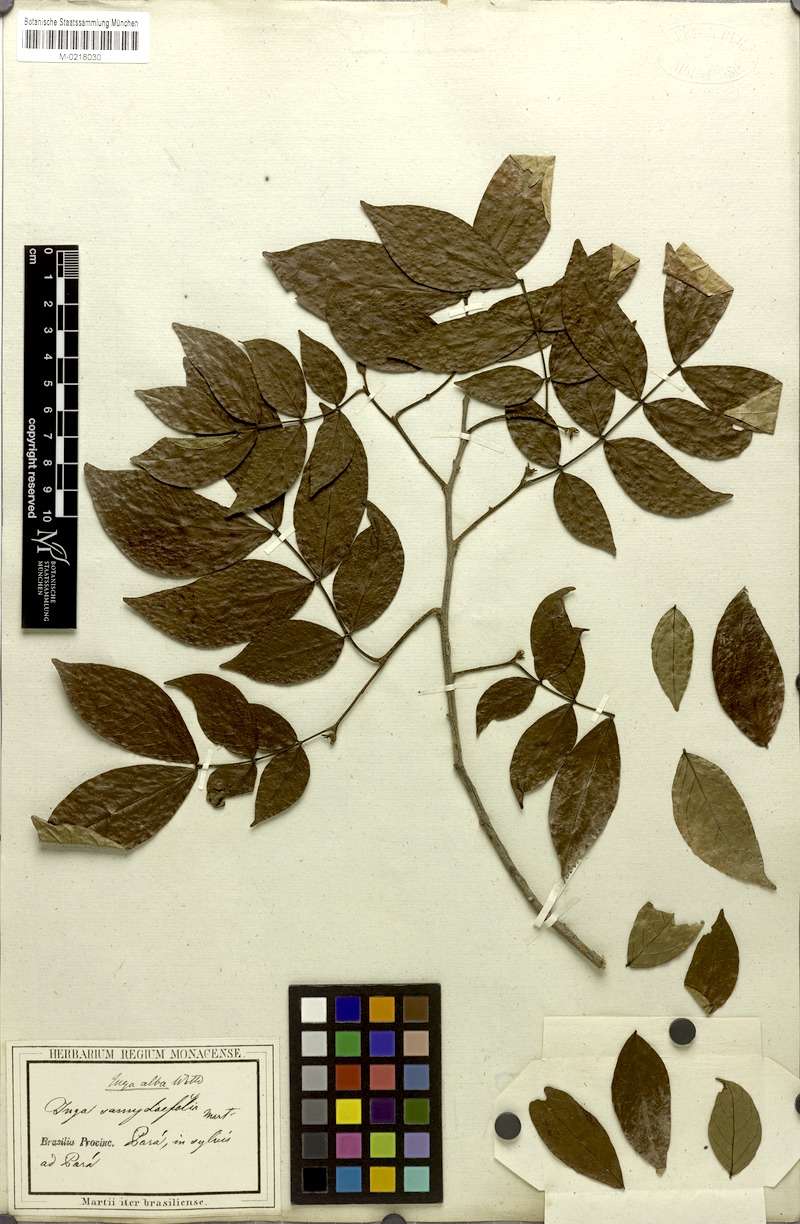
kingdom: Plantae
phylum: Tracheophyta
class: Magnoliopsida
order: Fabales
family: Fabaceae
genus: Inga
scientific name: Inga alba
